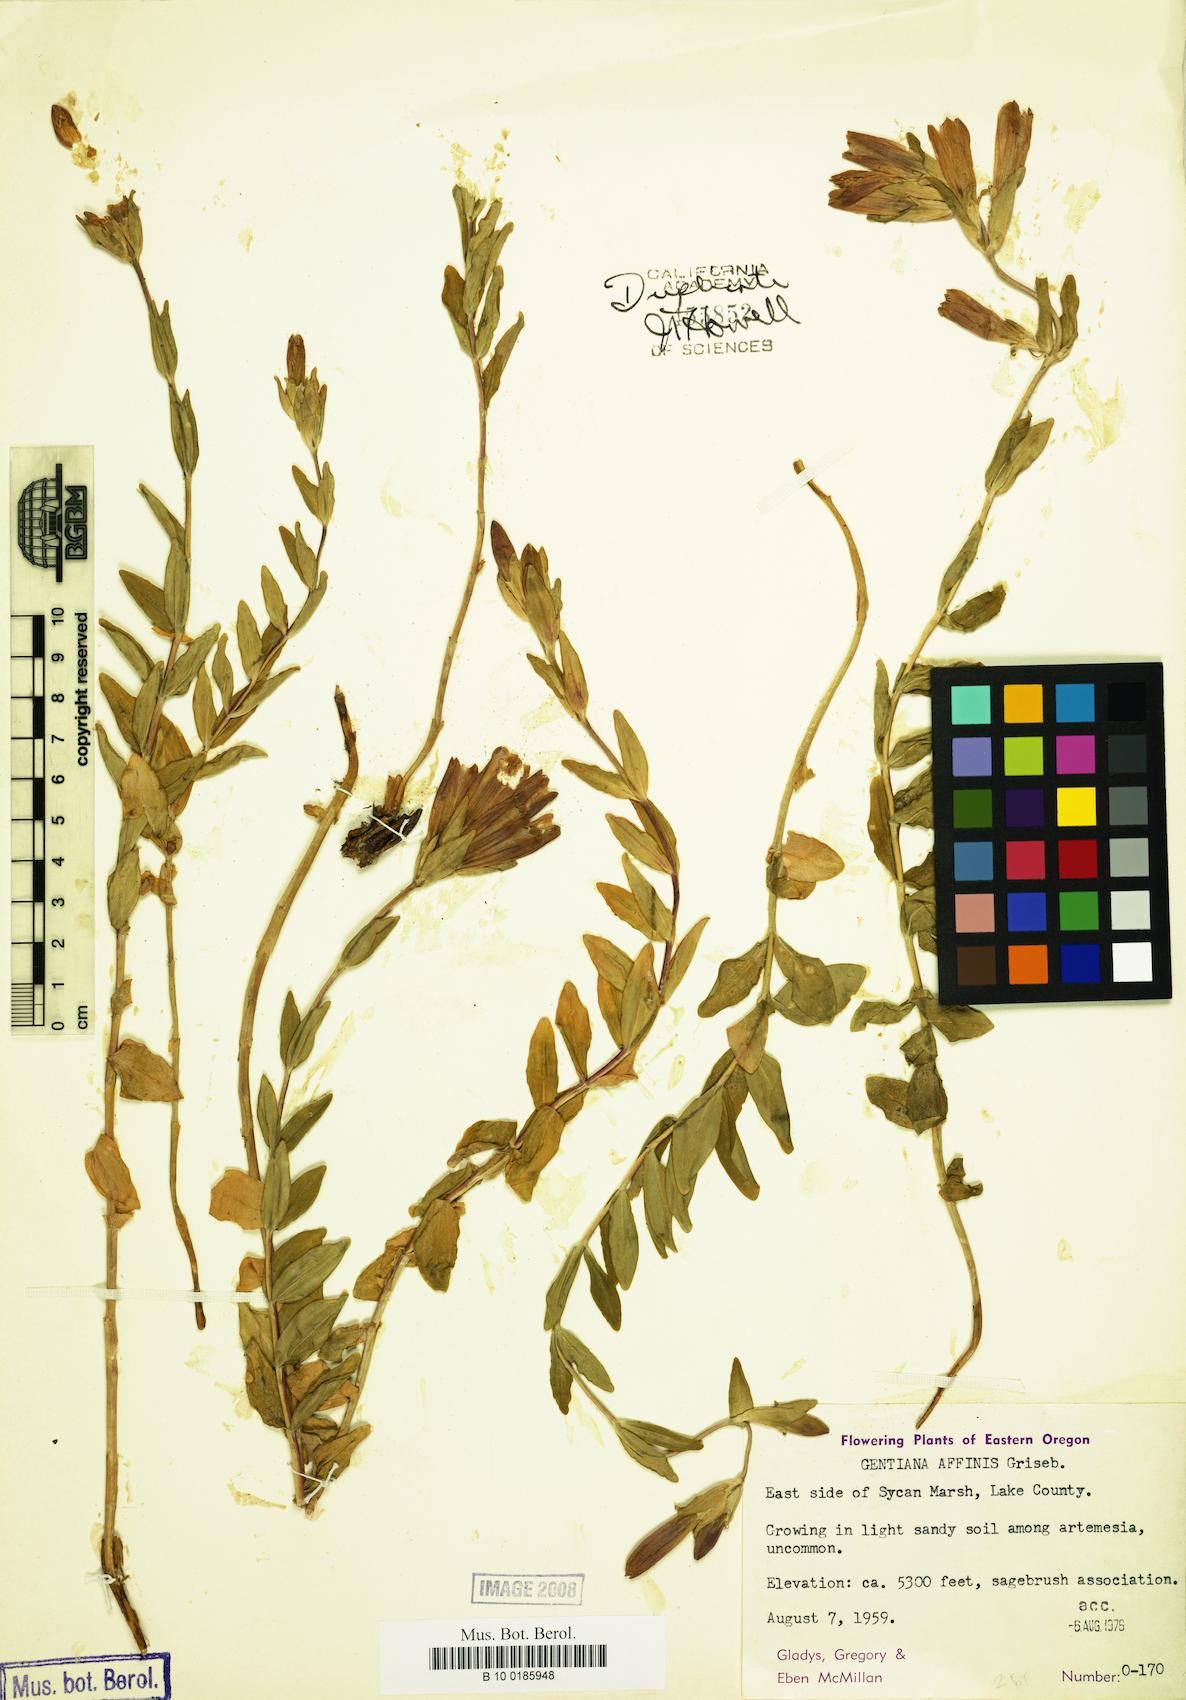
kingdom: Plantae
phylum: Tracheophyta
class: Magnoliopsida
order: Gentianales
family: Gentianaceae
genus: Gentiana
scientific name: Gentiana affinis
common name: Rocky mountain gentian
